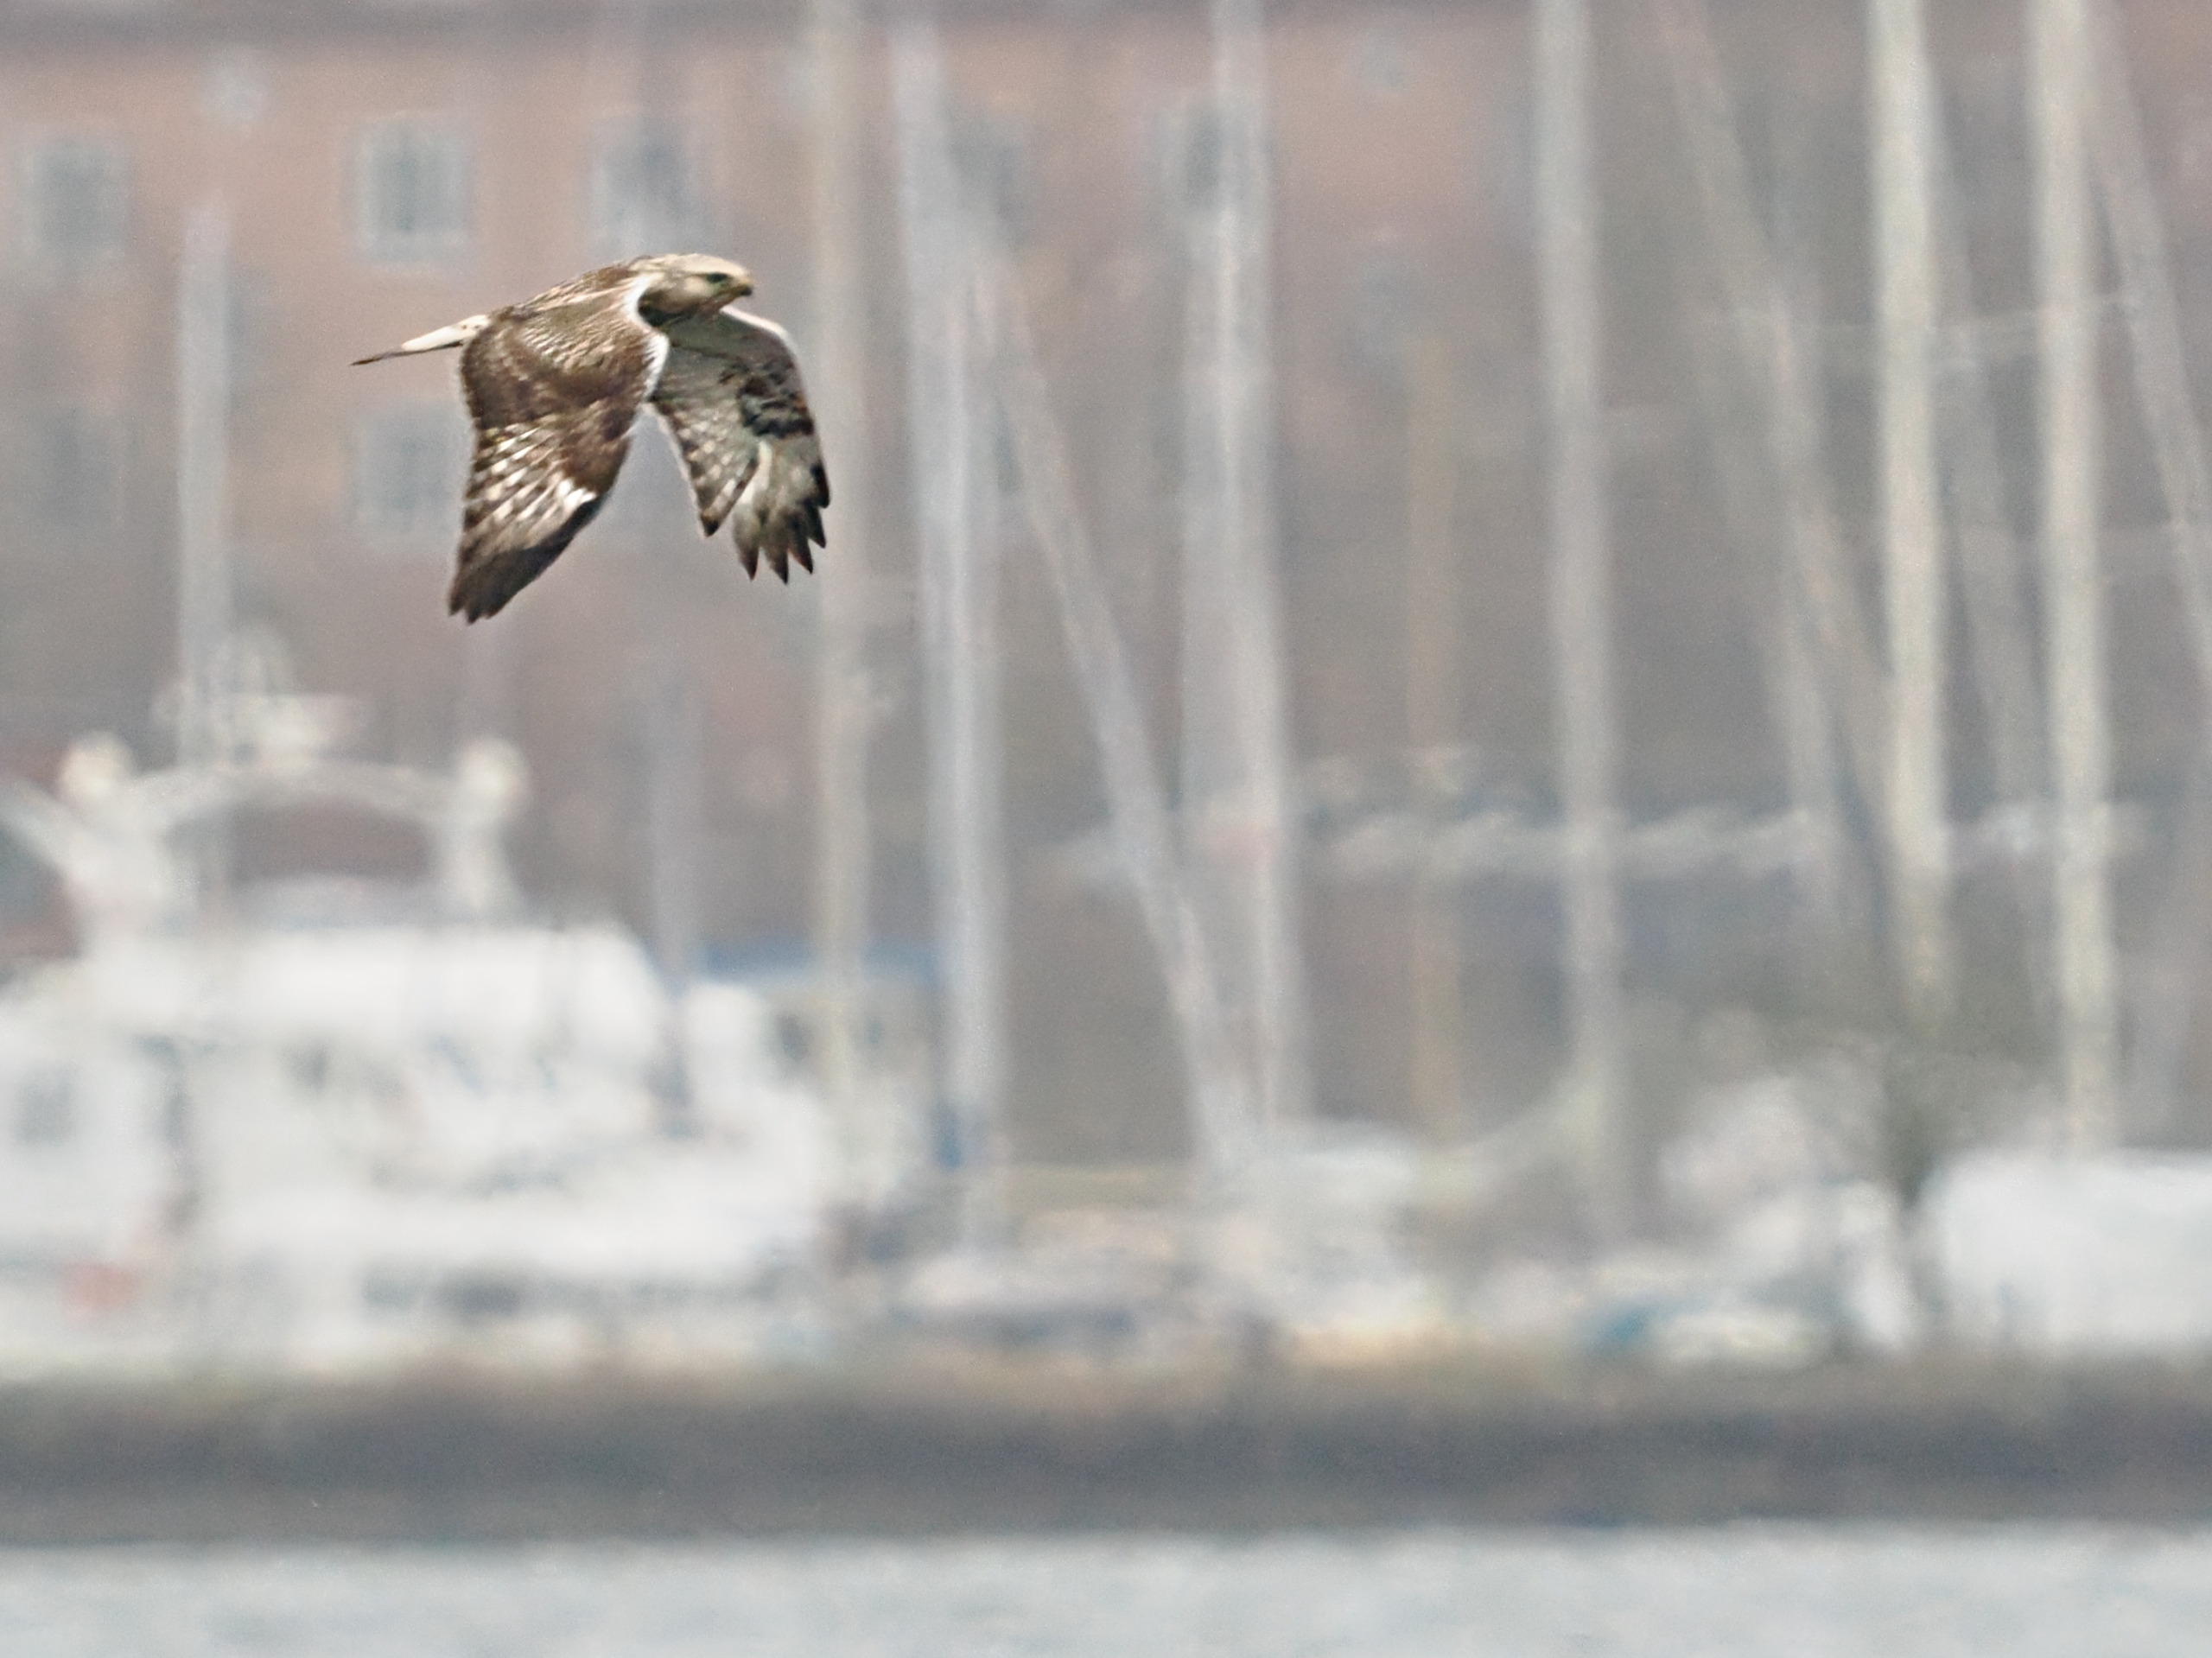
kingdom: Animalia
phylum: Chordata
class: Aves
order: Accipitriformes
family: Accipitridae
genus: Buteo
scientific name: Buteo lagopus
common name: Fjeldvåge
